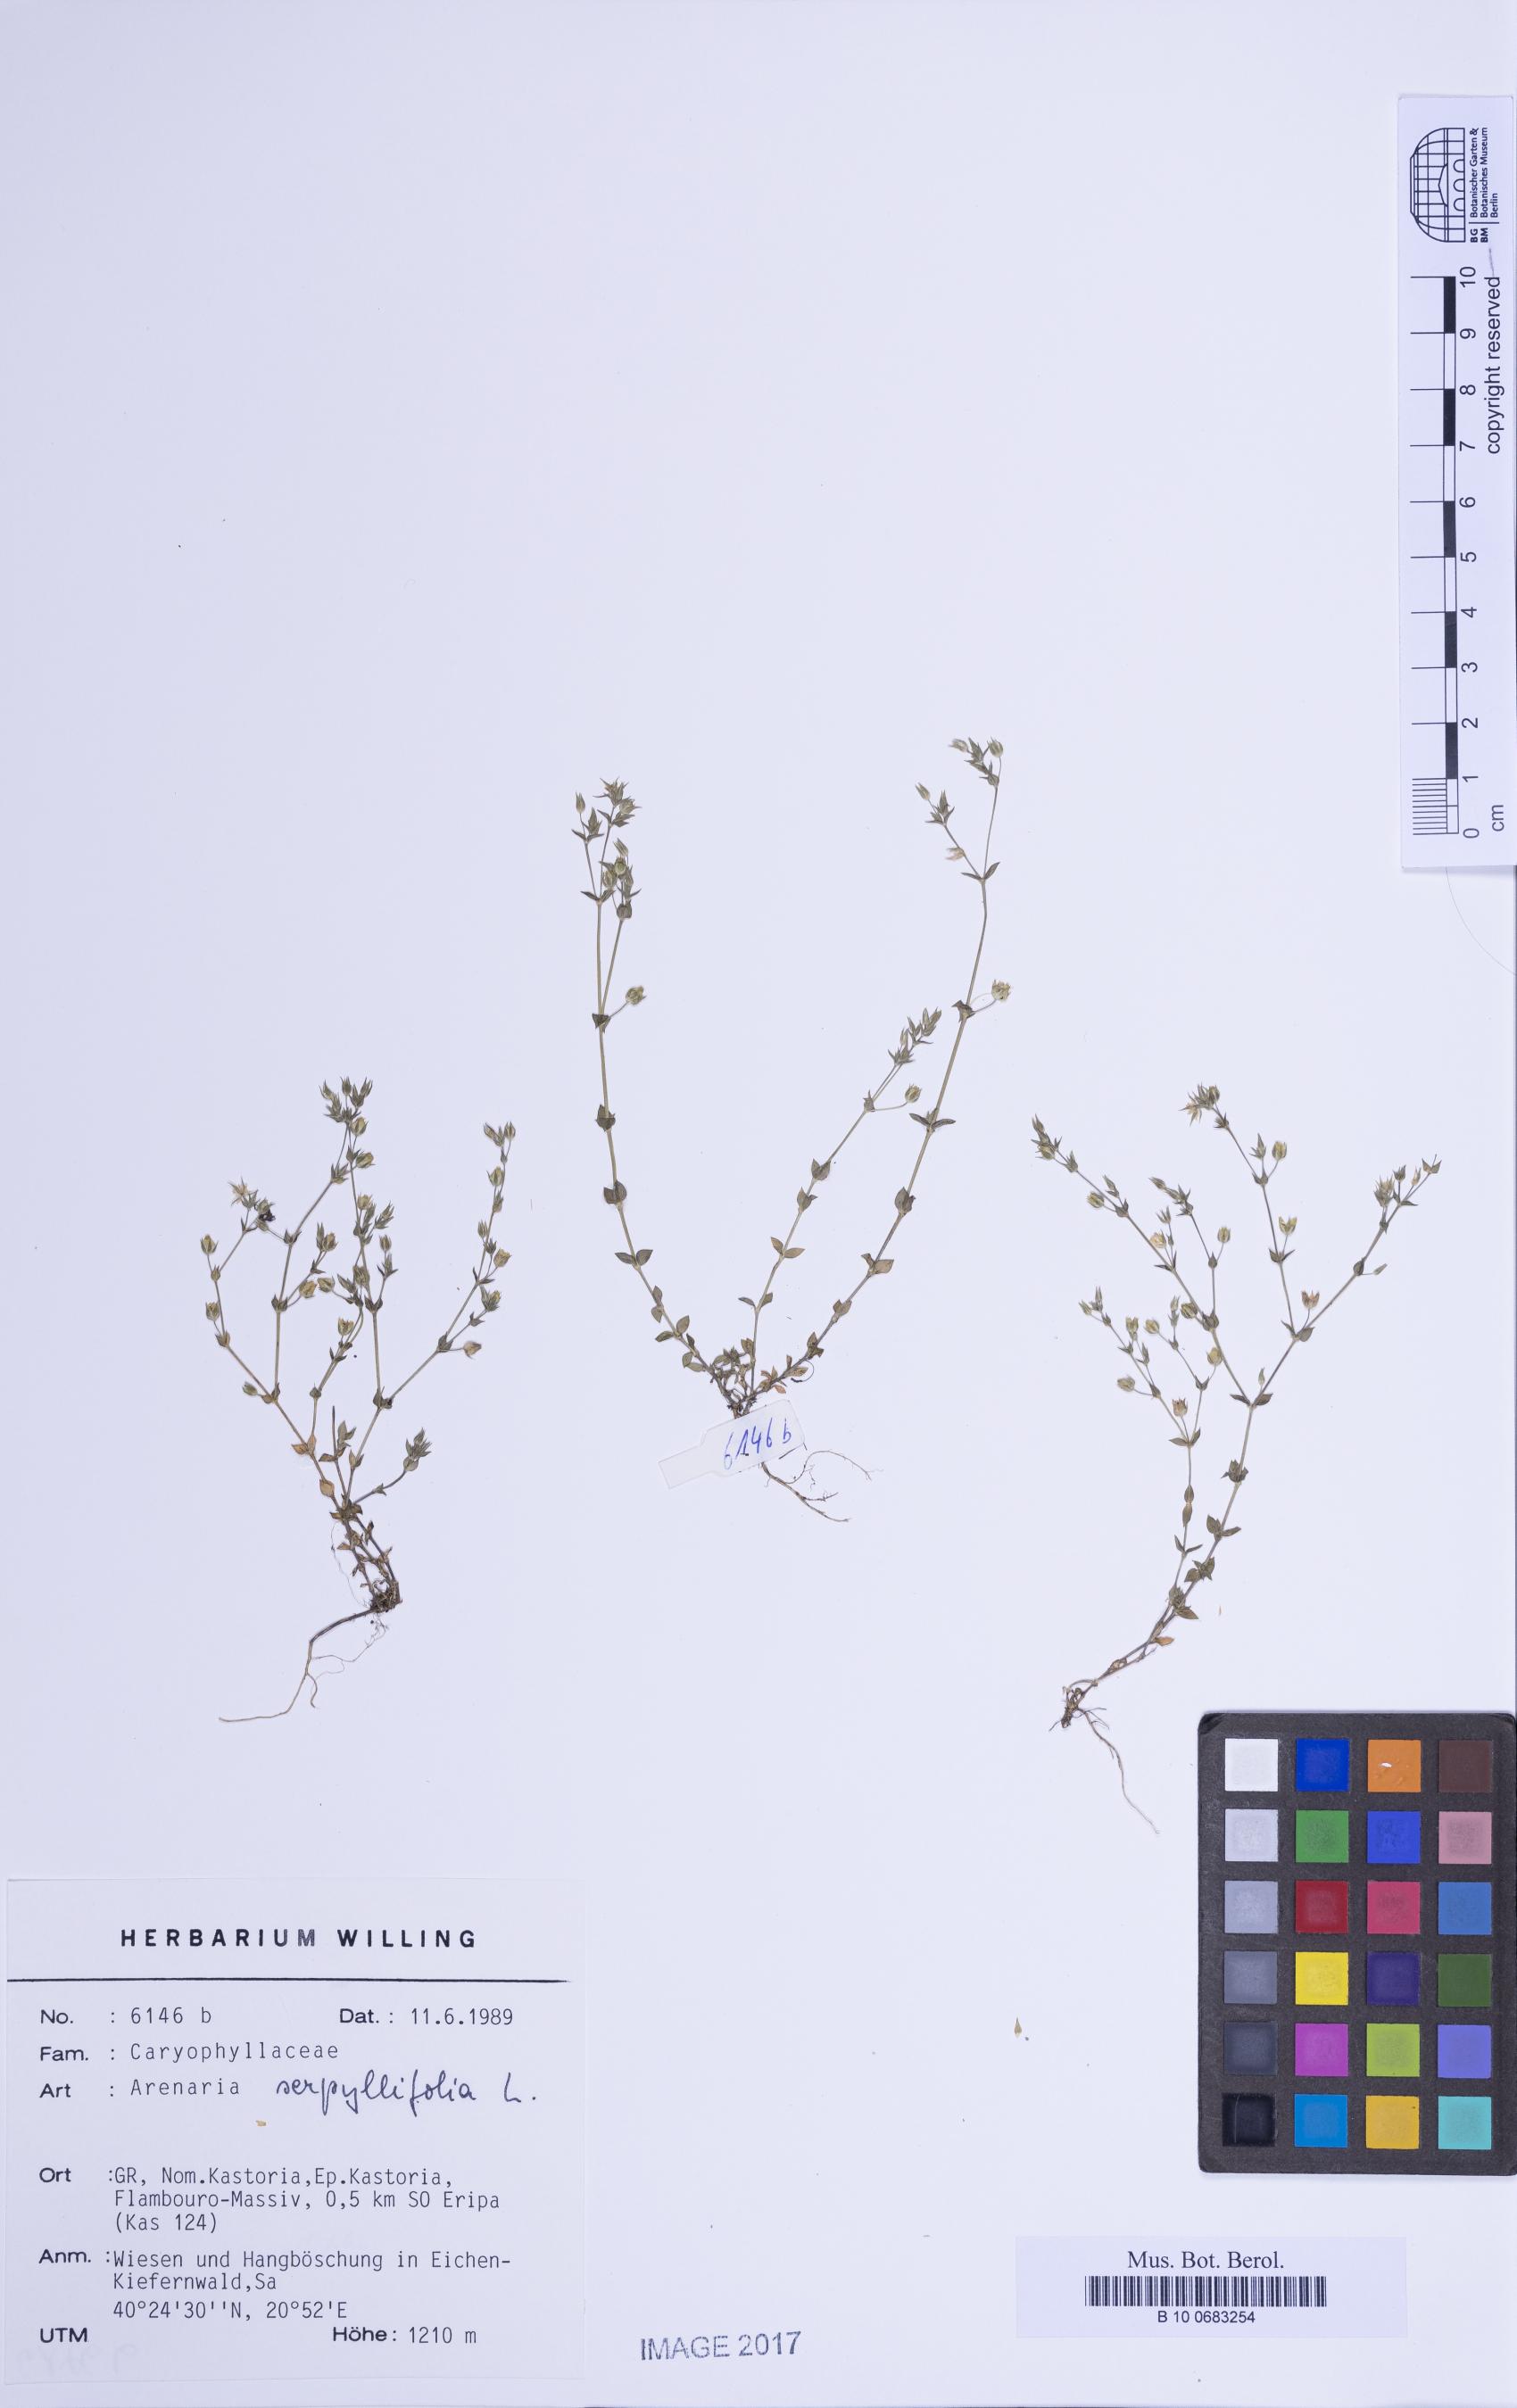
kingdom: Plantae
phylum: Tracheophyta
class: Magnoliopsida
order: Caryophyllales
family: Caryophyllaceae
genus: Arenaria
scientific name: Arenaria serpyllifolia
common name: Thyme-leaved sandwort
